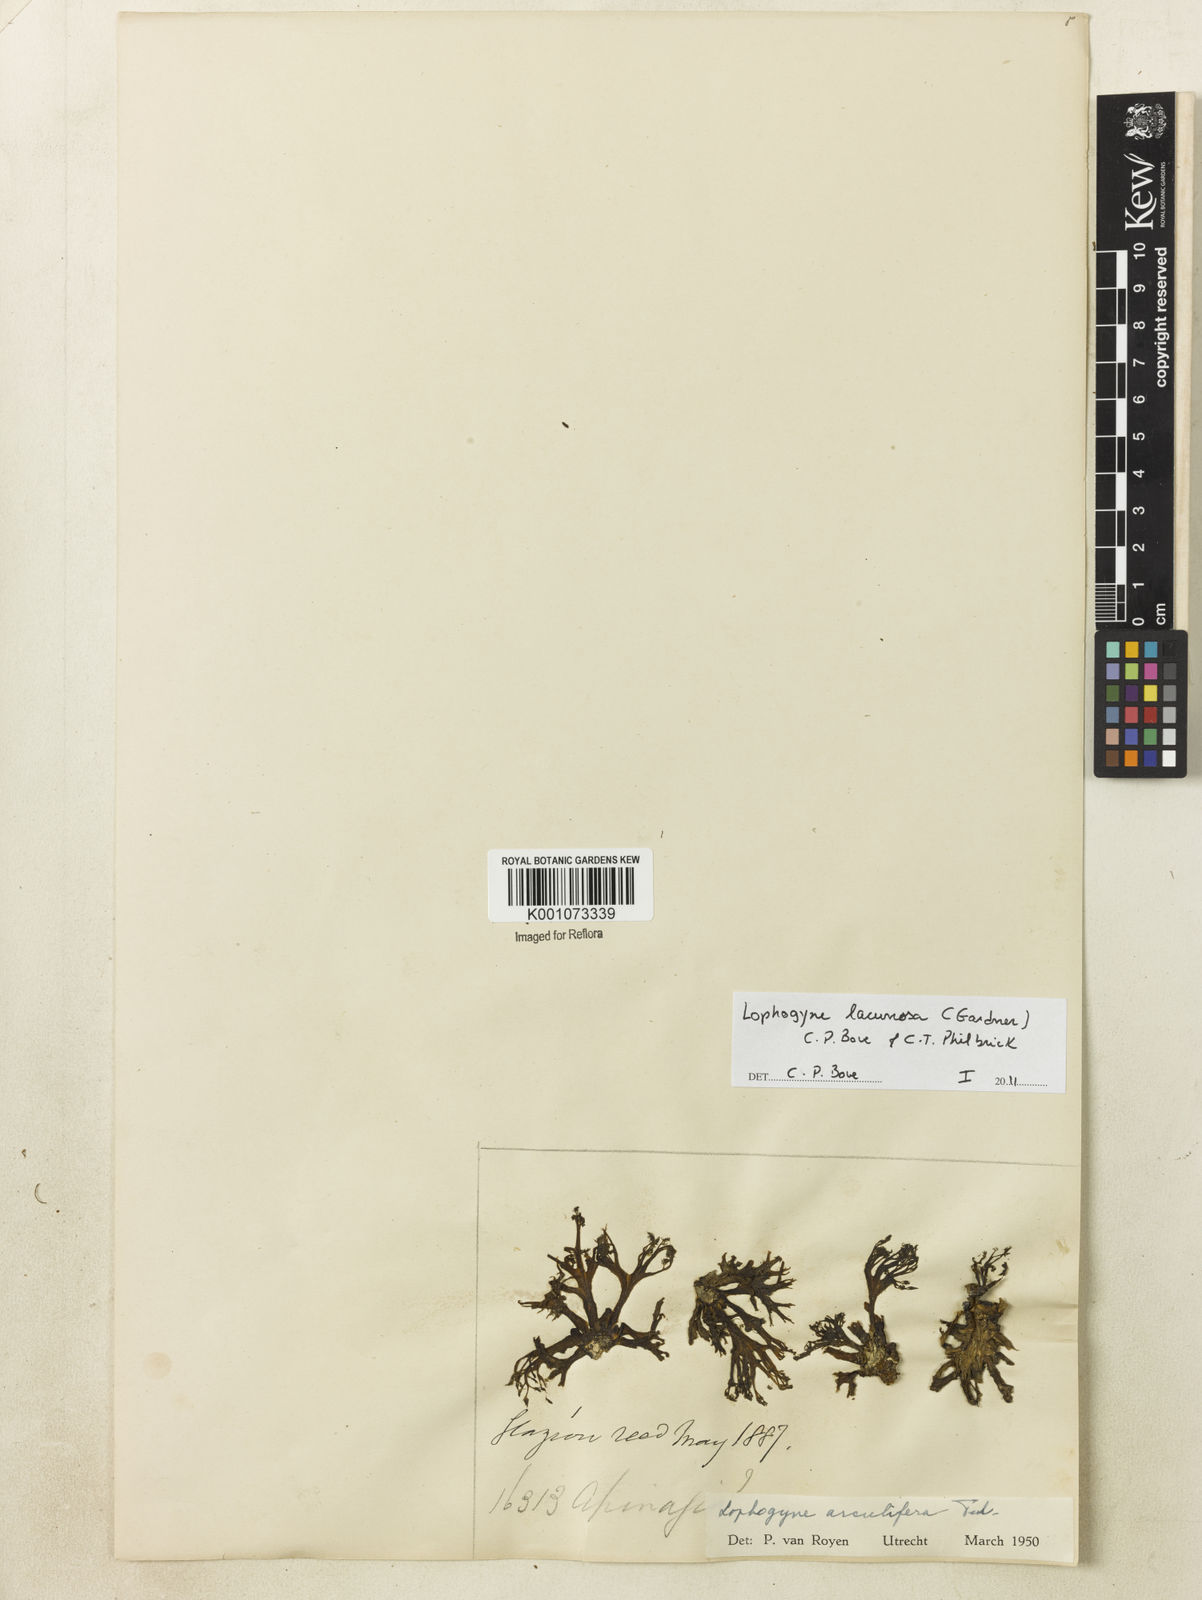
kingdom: Plantae
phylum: Tracheophyta
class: Magnoliopsida
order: Malpighiales
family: Podostemaceae
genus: Lophogyne
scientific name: Lophogyne lacunosa
